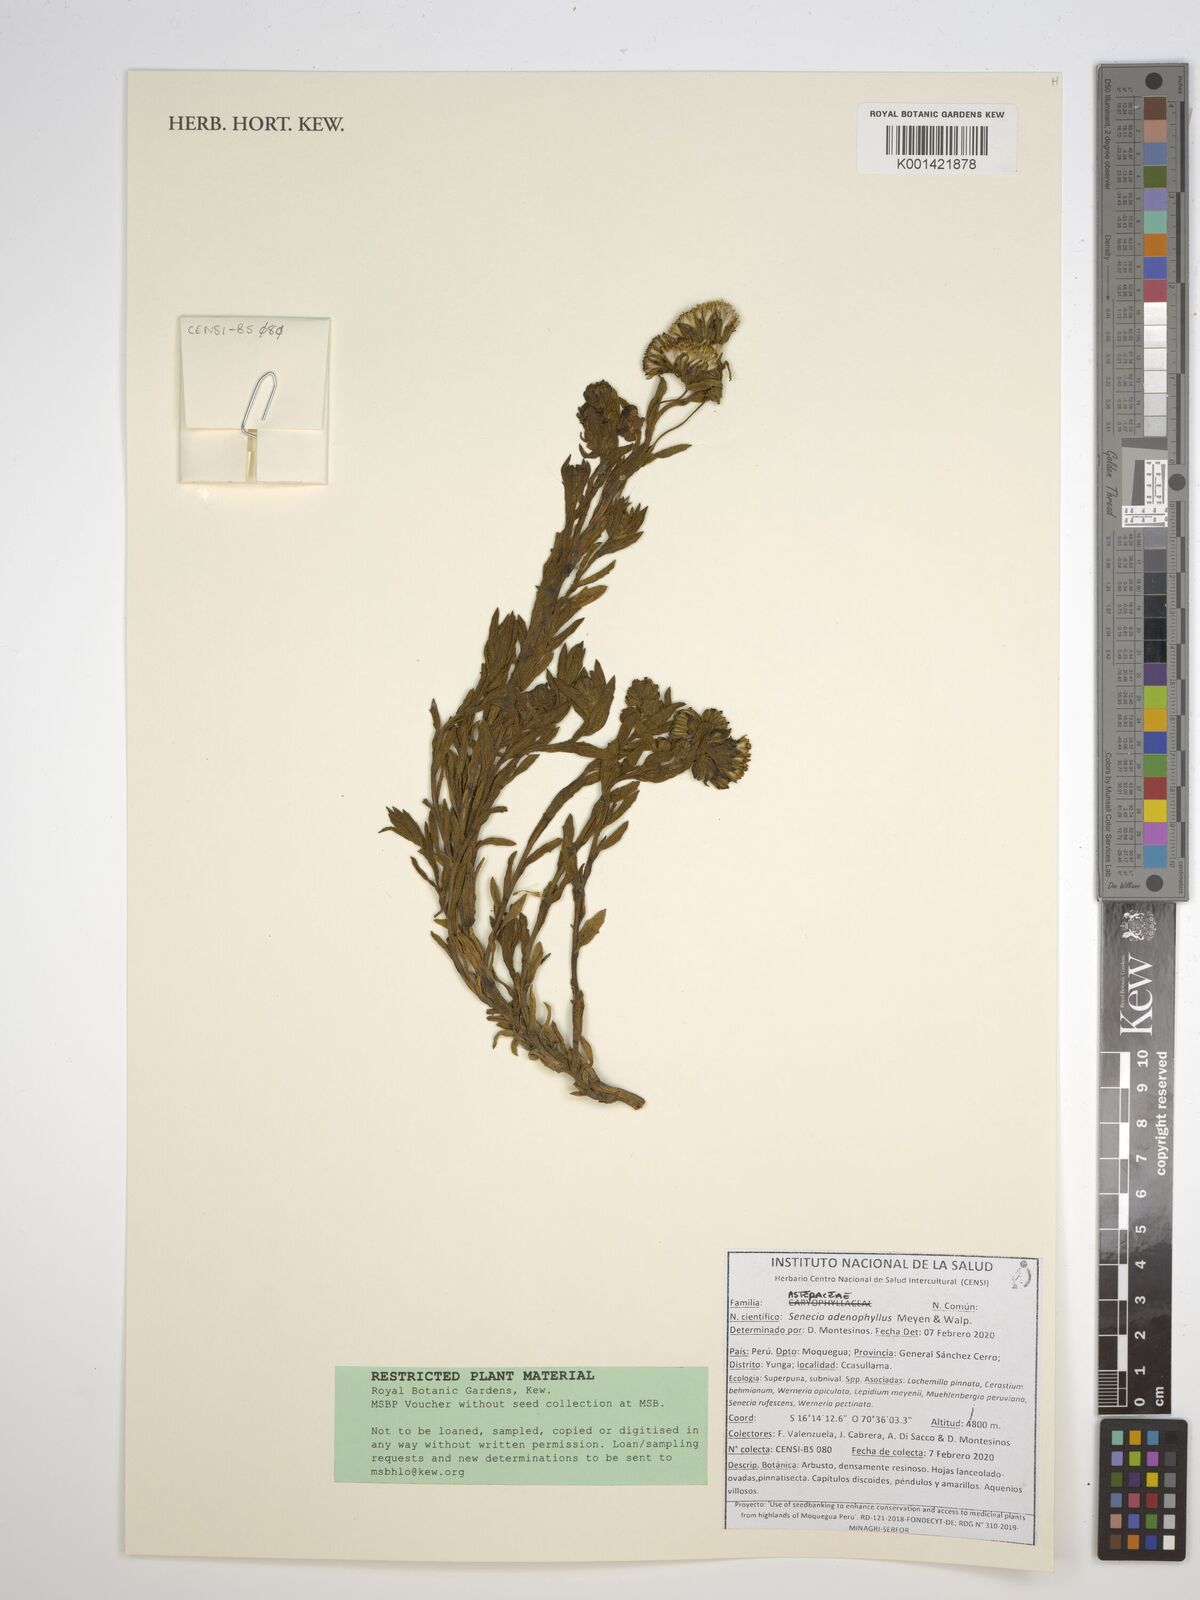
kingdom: Plantae
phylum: Tracheophyta
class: Magnoliopsida
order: Asterales
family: Asteraceae
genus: Senecio
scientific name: Senecio rufescens
